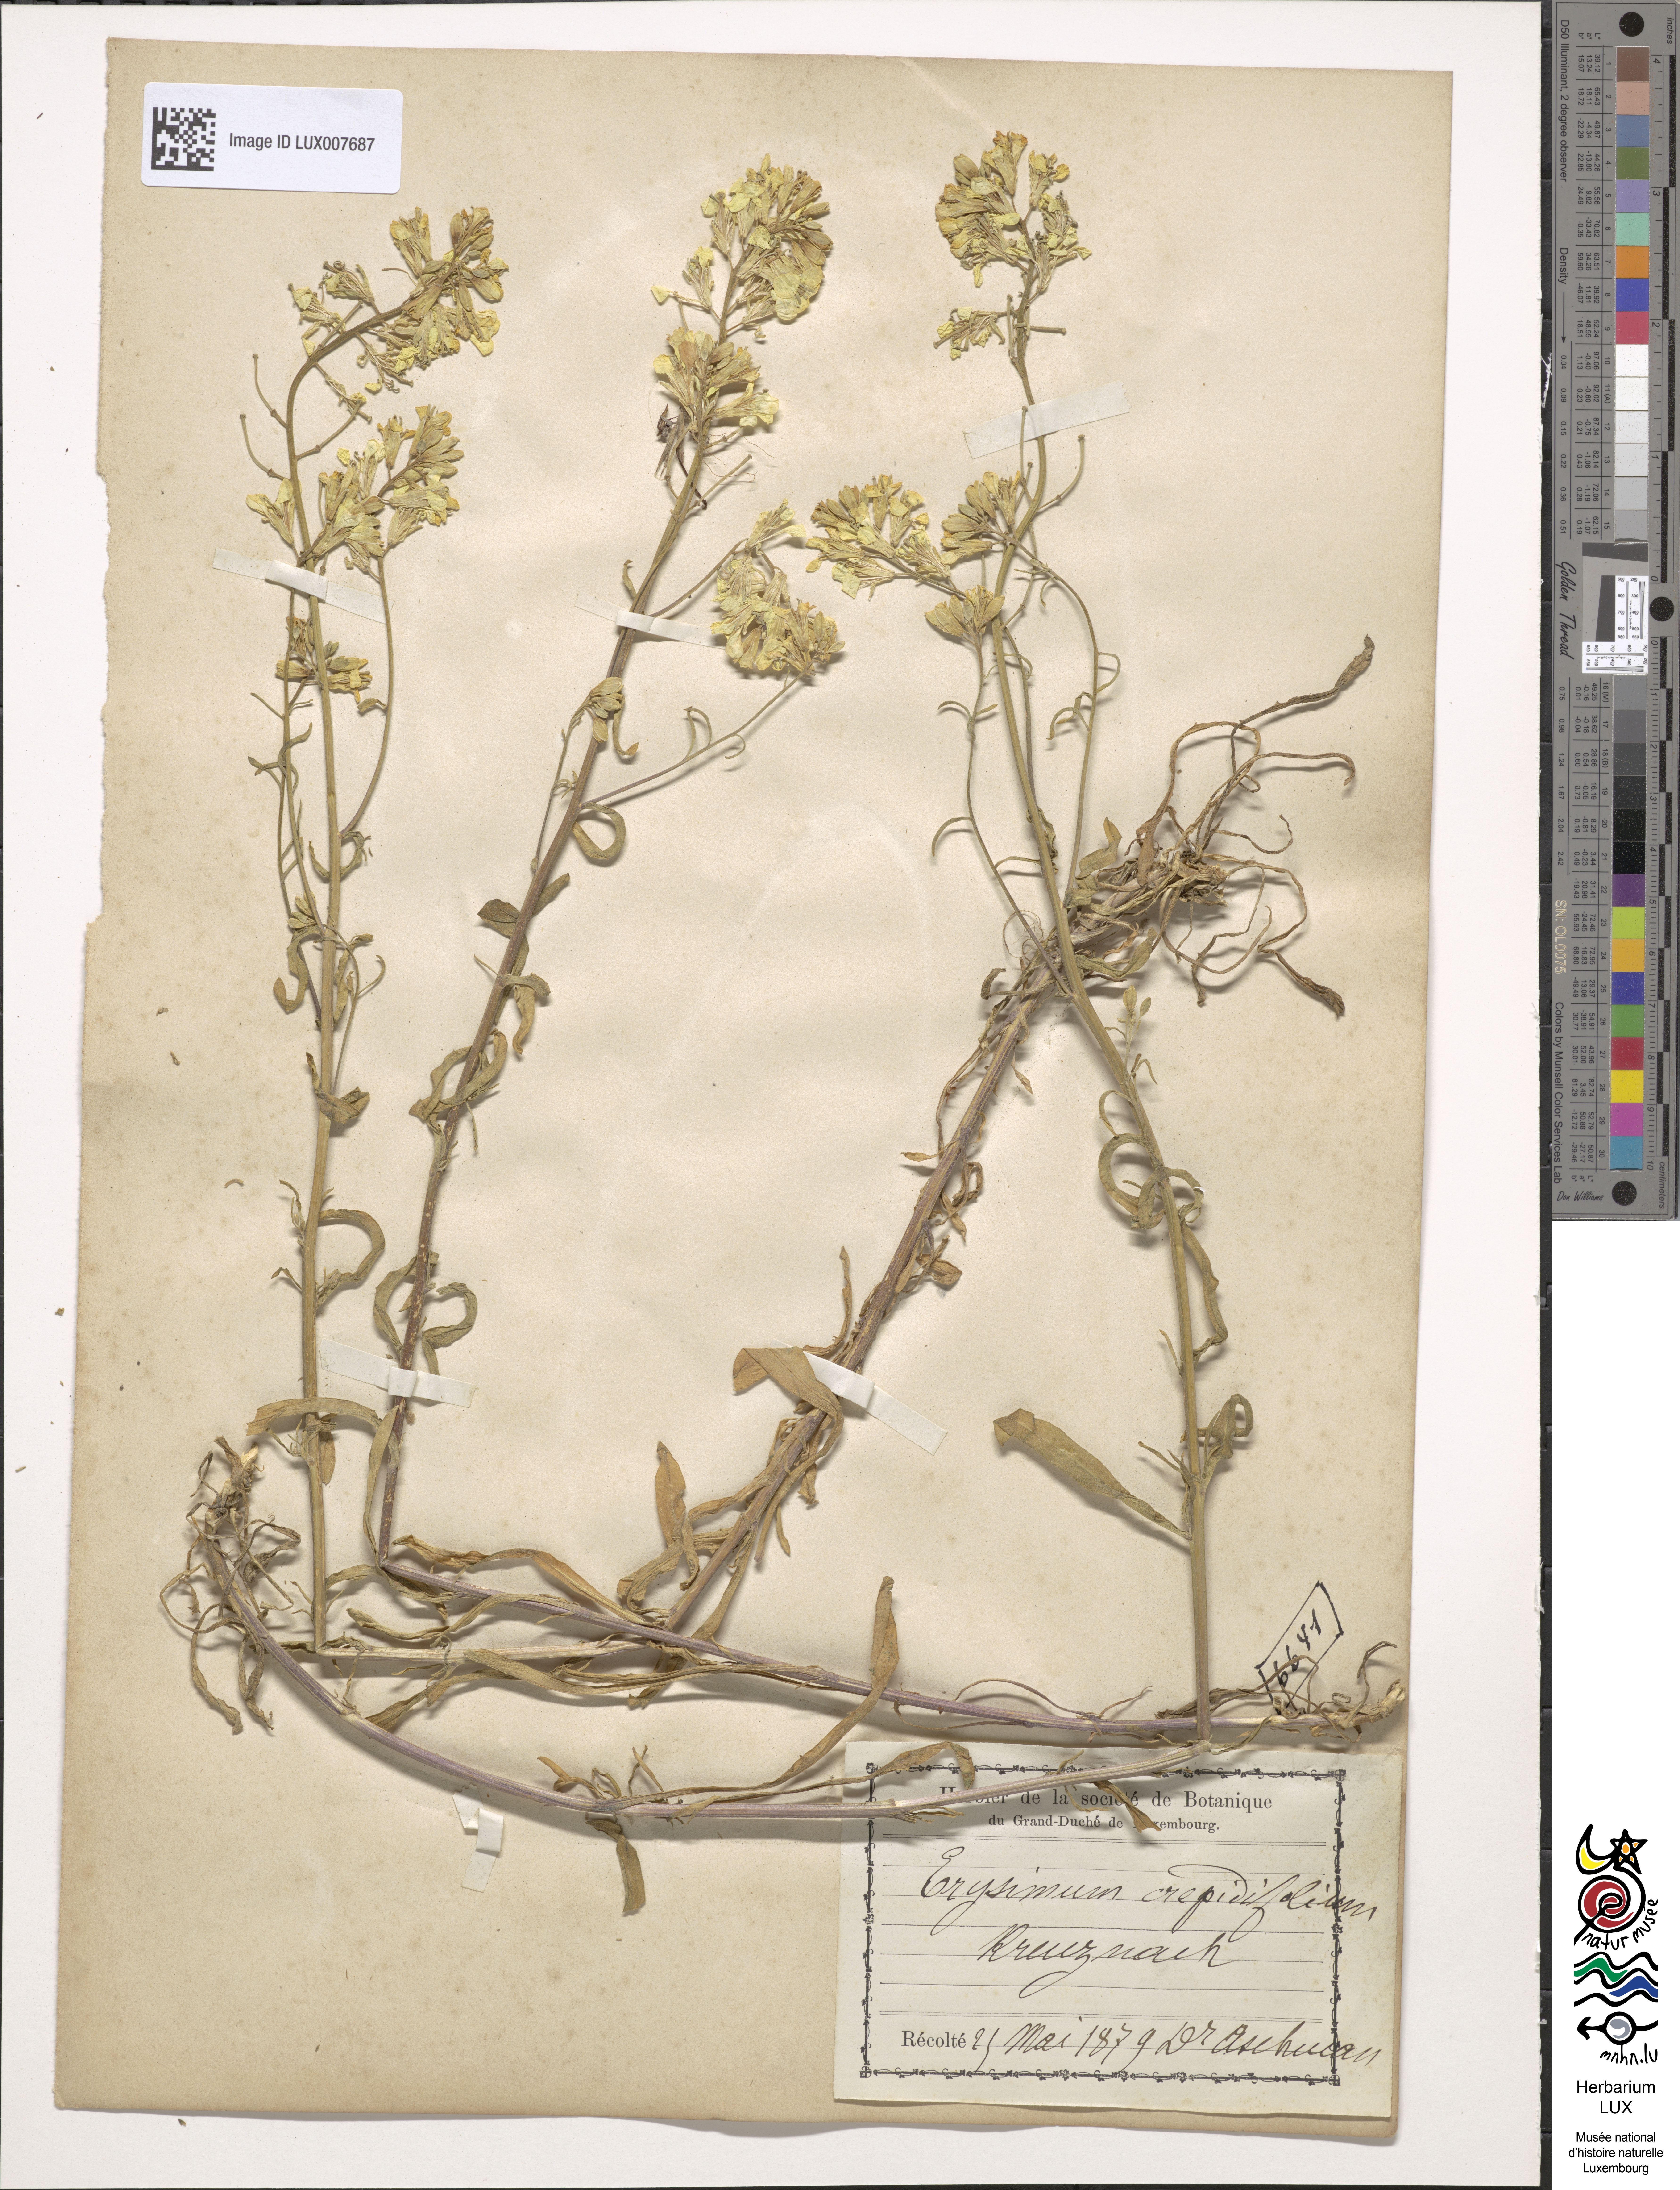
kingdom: Plantae
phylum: Tracheophyta
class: Magnoliopsida
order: Brassicales
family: Brassicaceae
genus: Erysimum
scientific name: Erysimum crepidifolium
